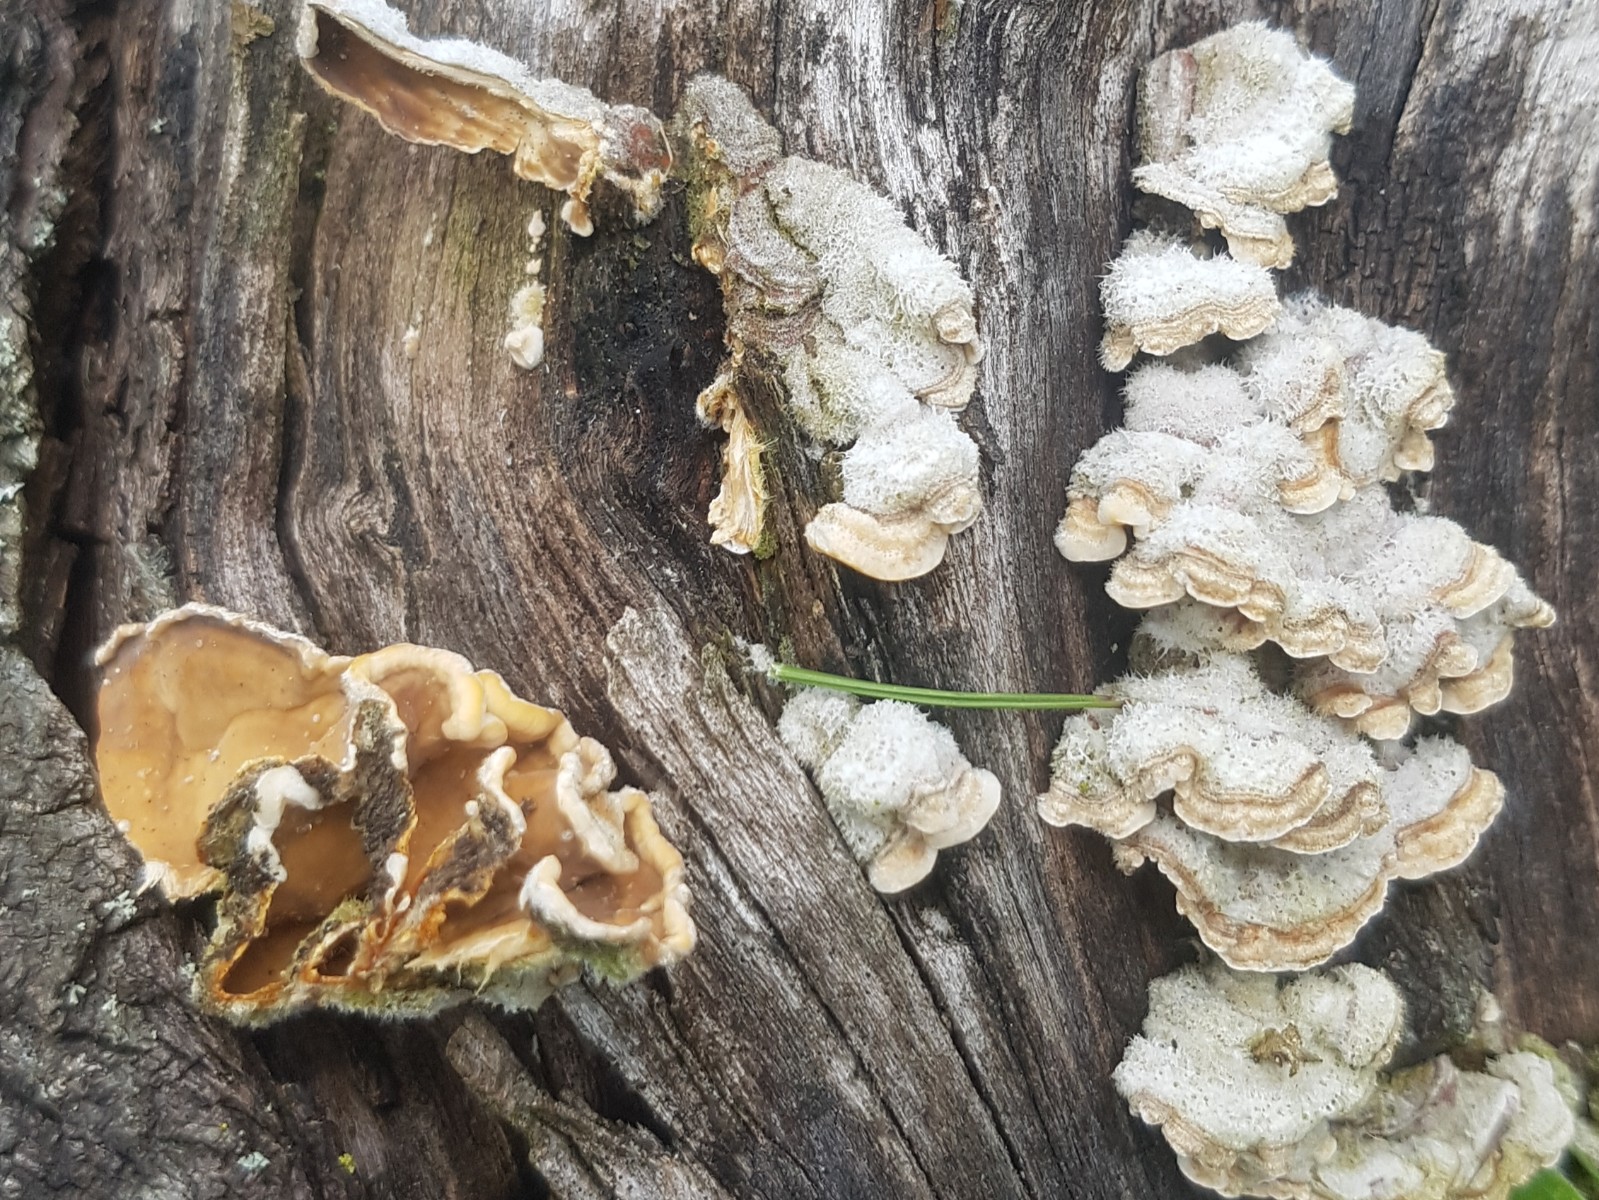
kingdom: Fungi
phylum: Basidiomycota
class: Agaricomycetes
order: Russulales
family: Stereaceae
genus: Stereum
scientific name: Stereum hirsutum
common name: håret lædersvamp
